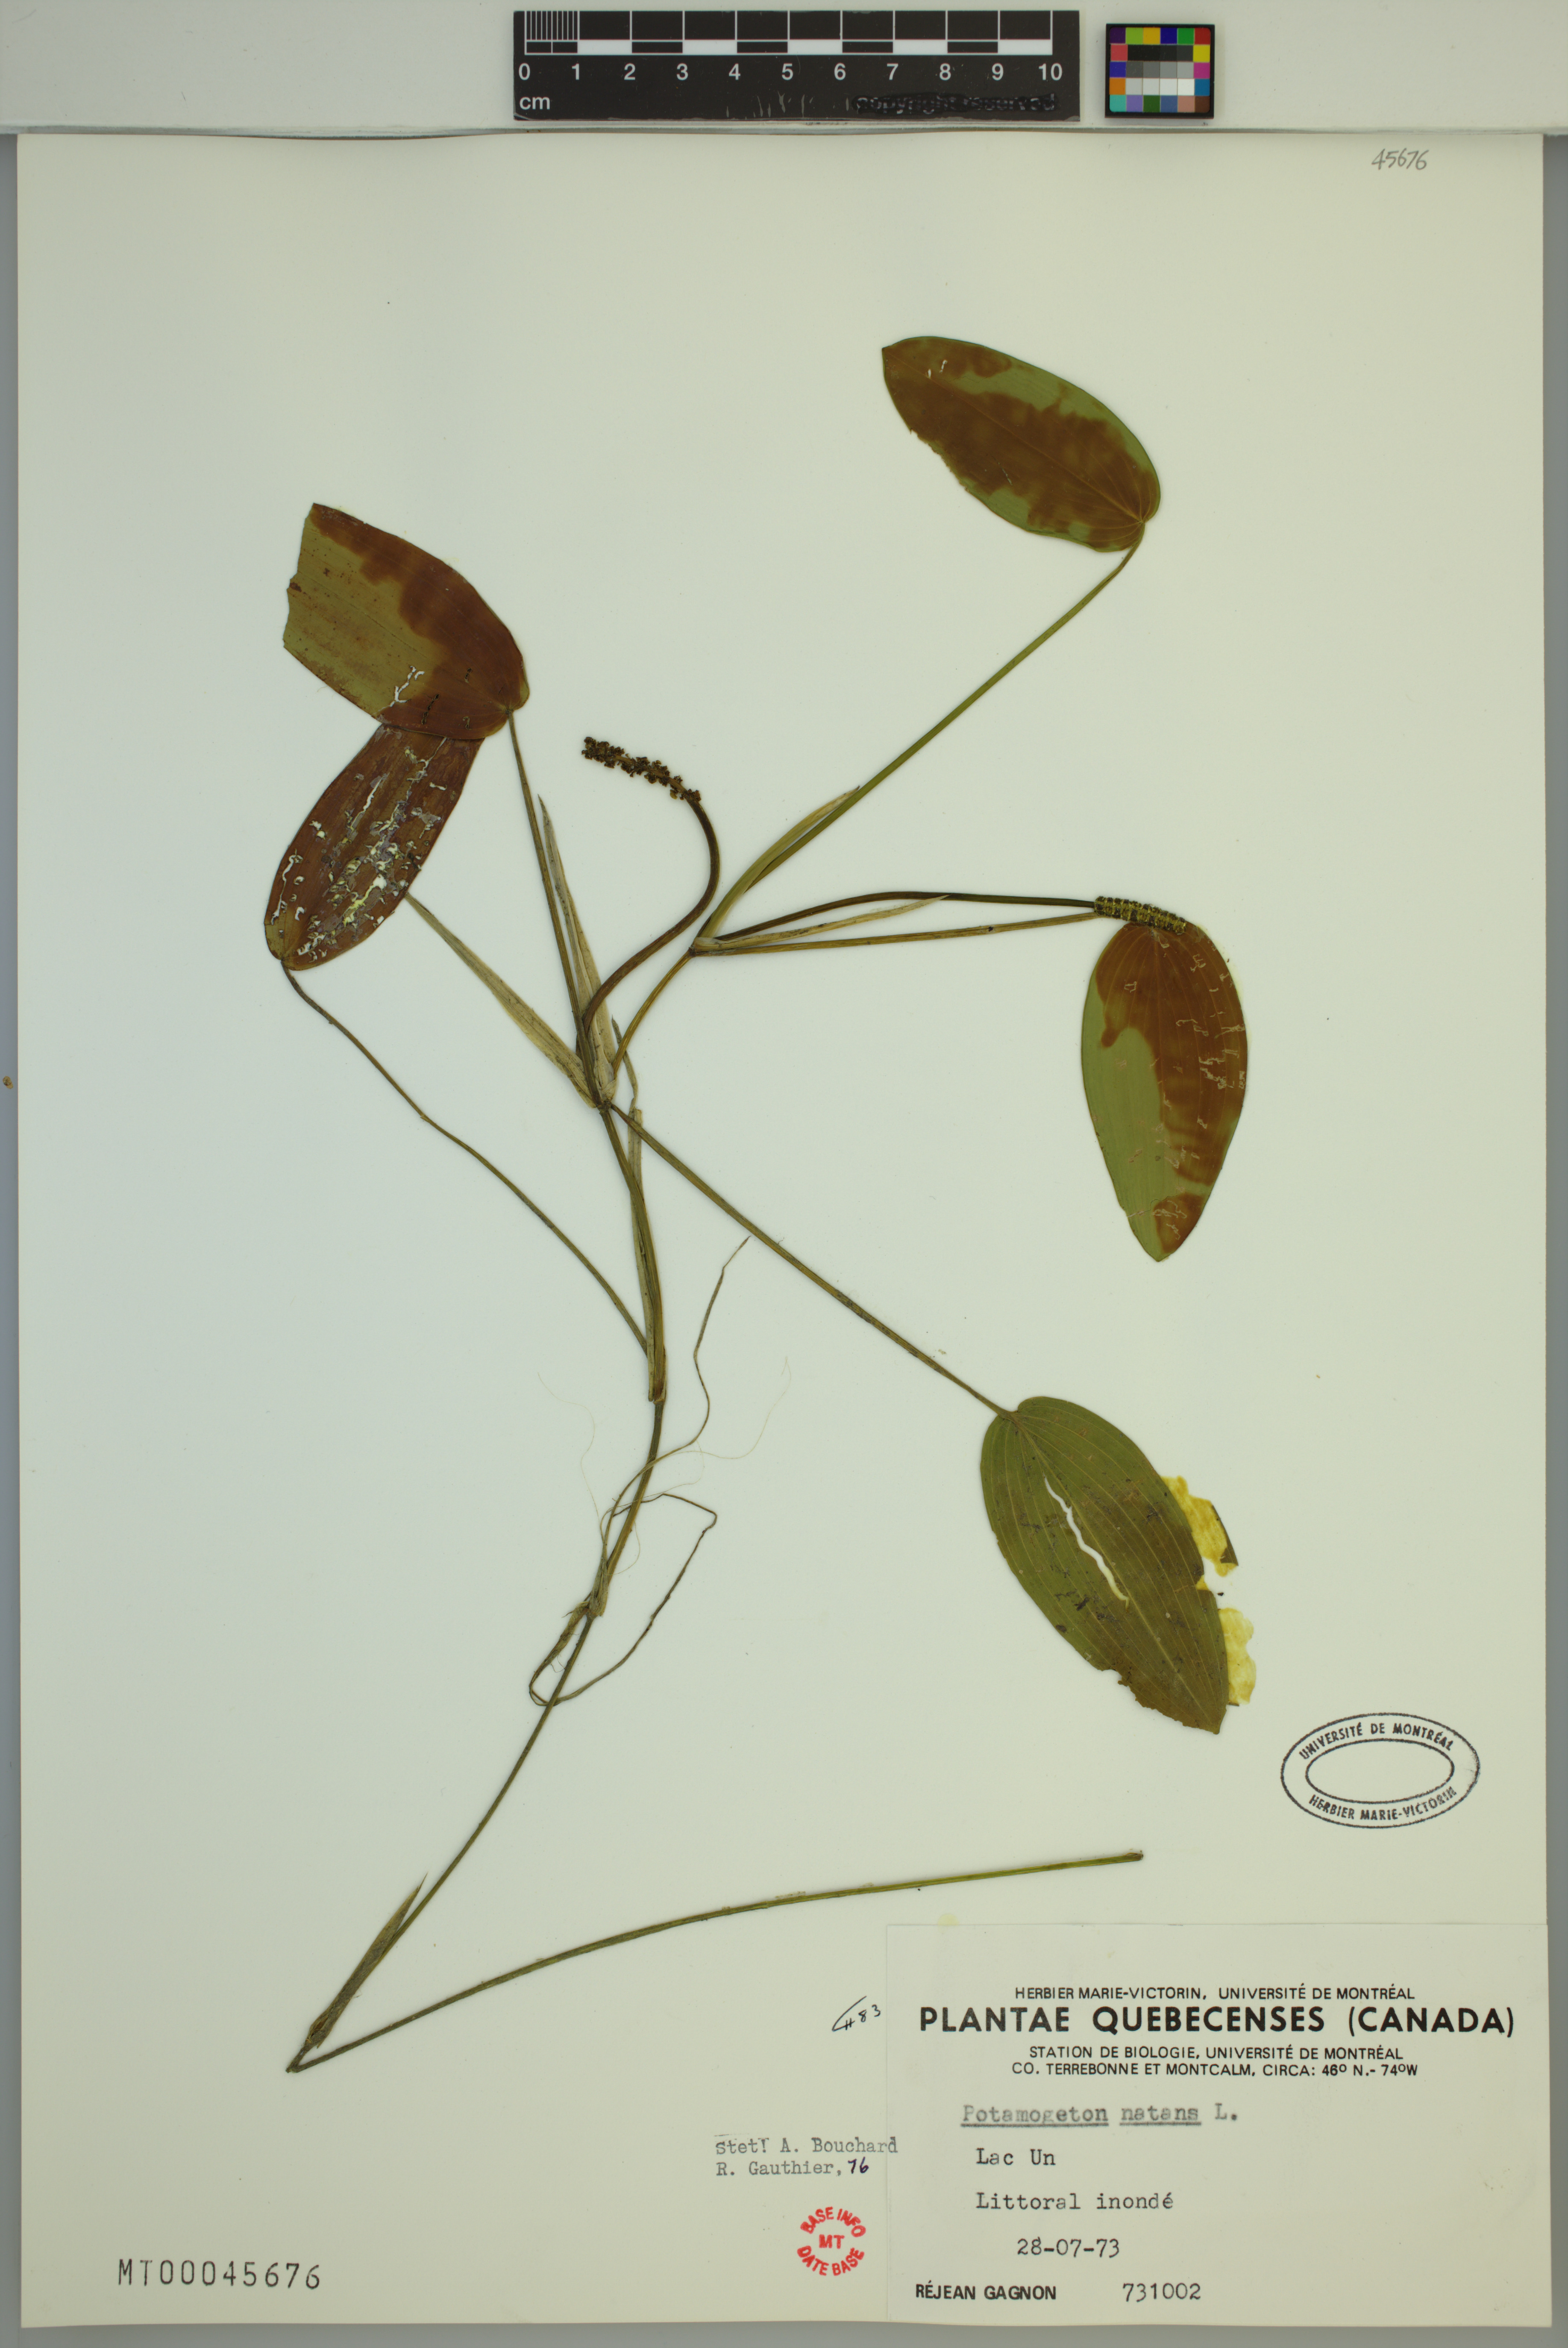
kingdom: Plantae
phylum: Tracheophyta
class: Liliopsida
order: Alismatales
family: Potamogetonaceae
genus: Potamogeton
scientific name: Potamogeton natans
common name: Broad-leaved pondweed
